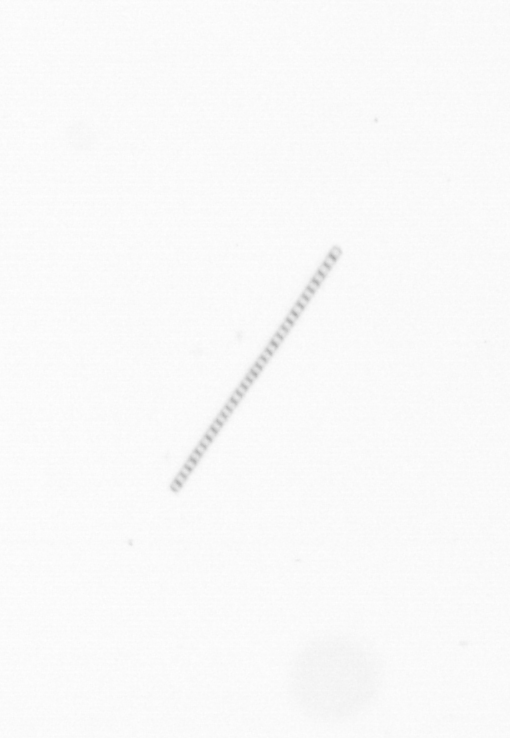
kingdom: Chromista
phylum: Ochrophyta
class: Bacillariophyceae
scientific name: Bacillariophyceae
